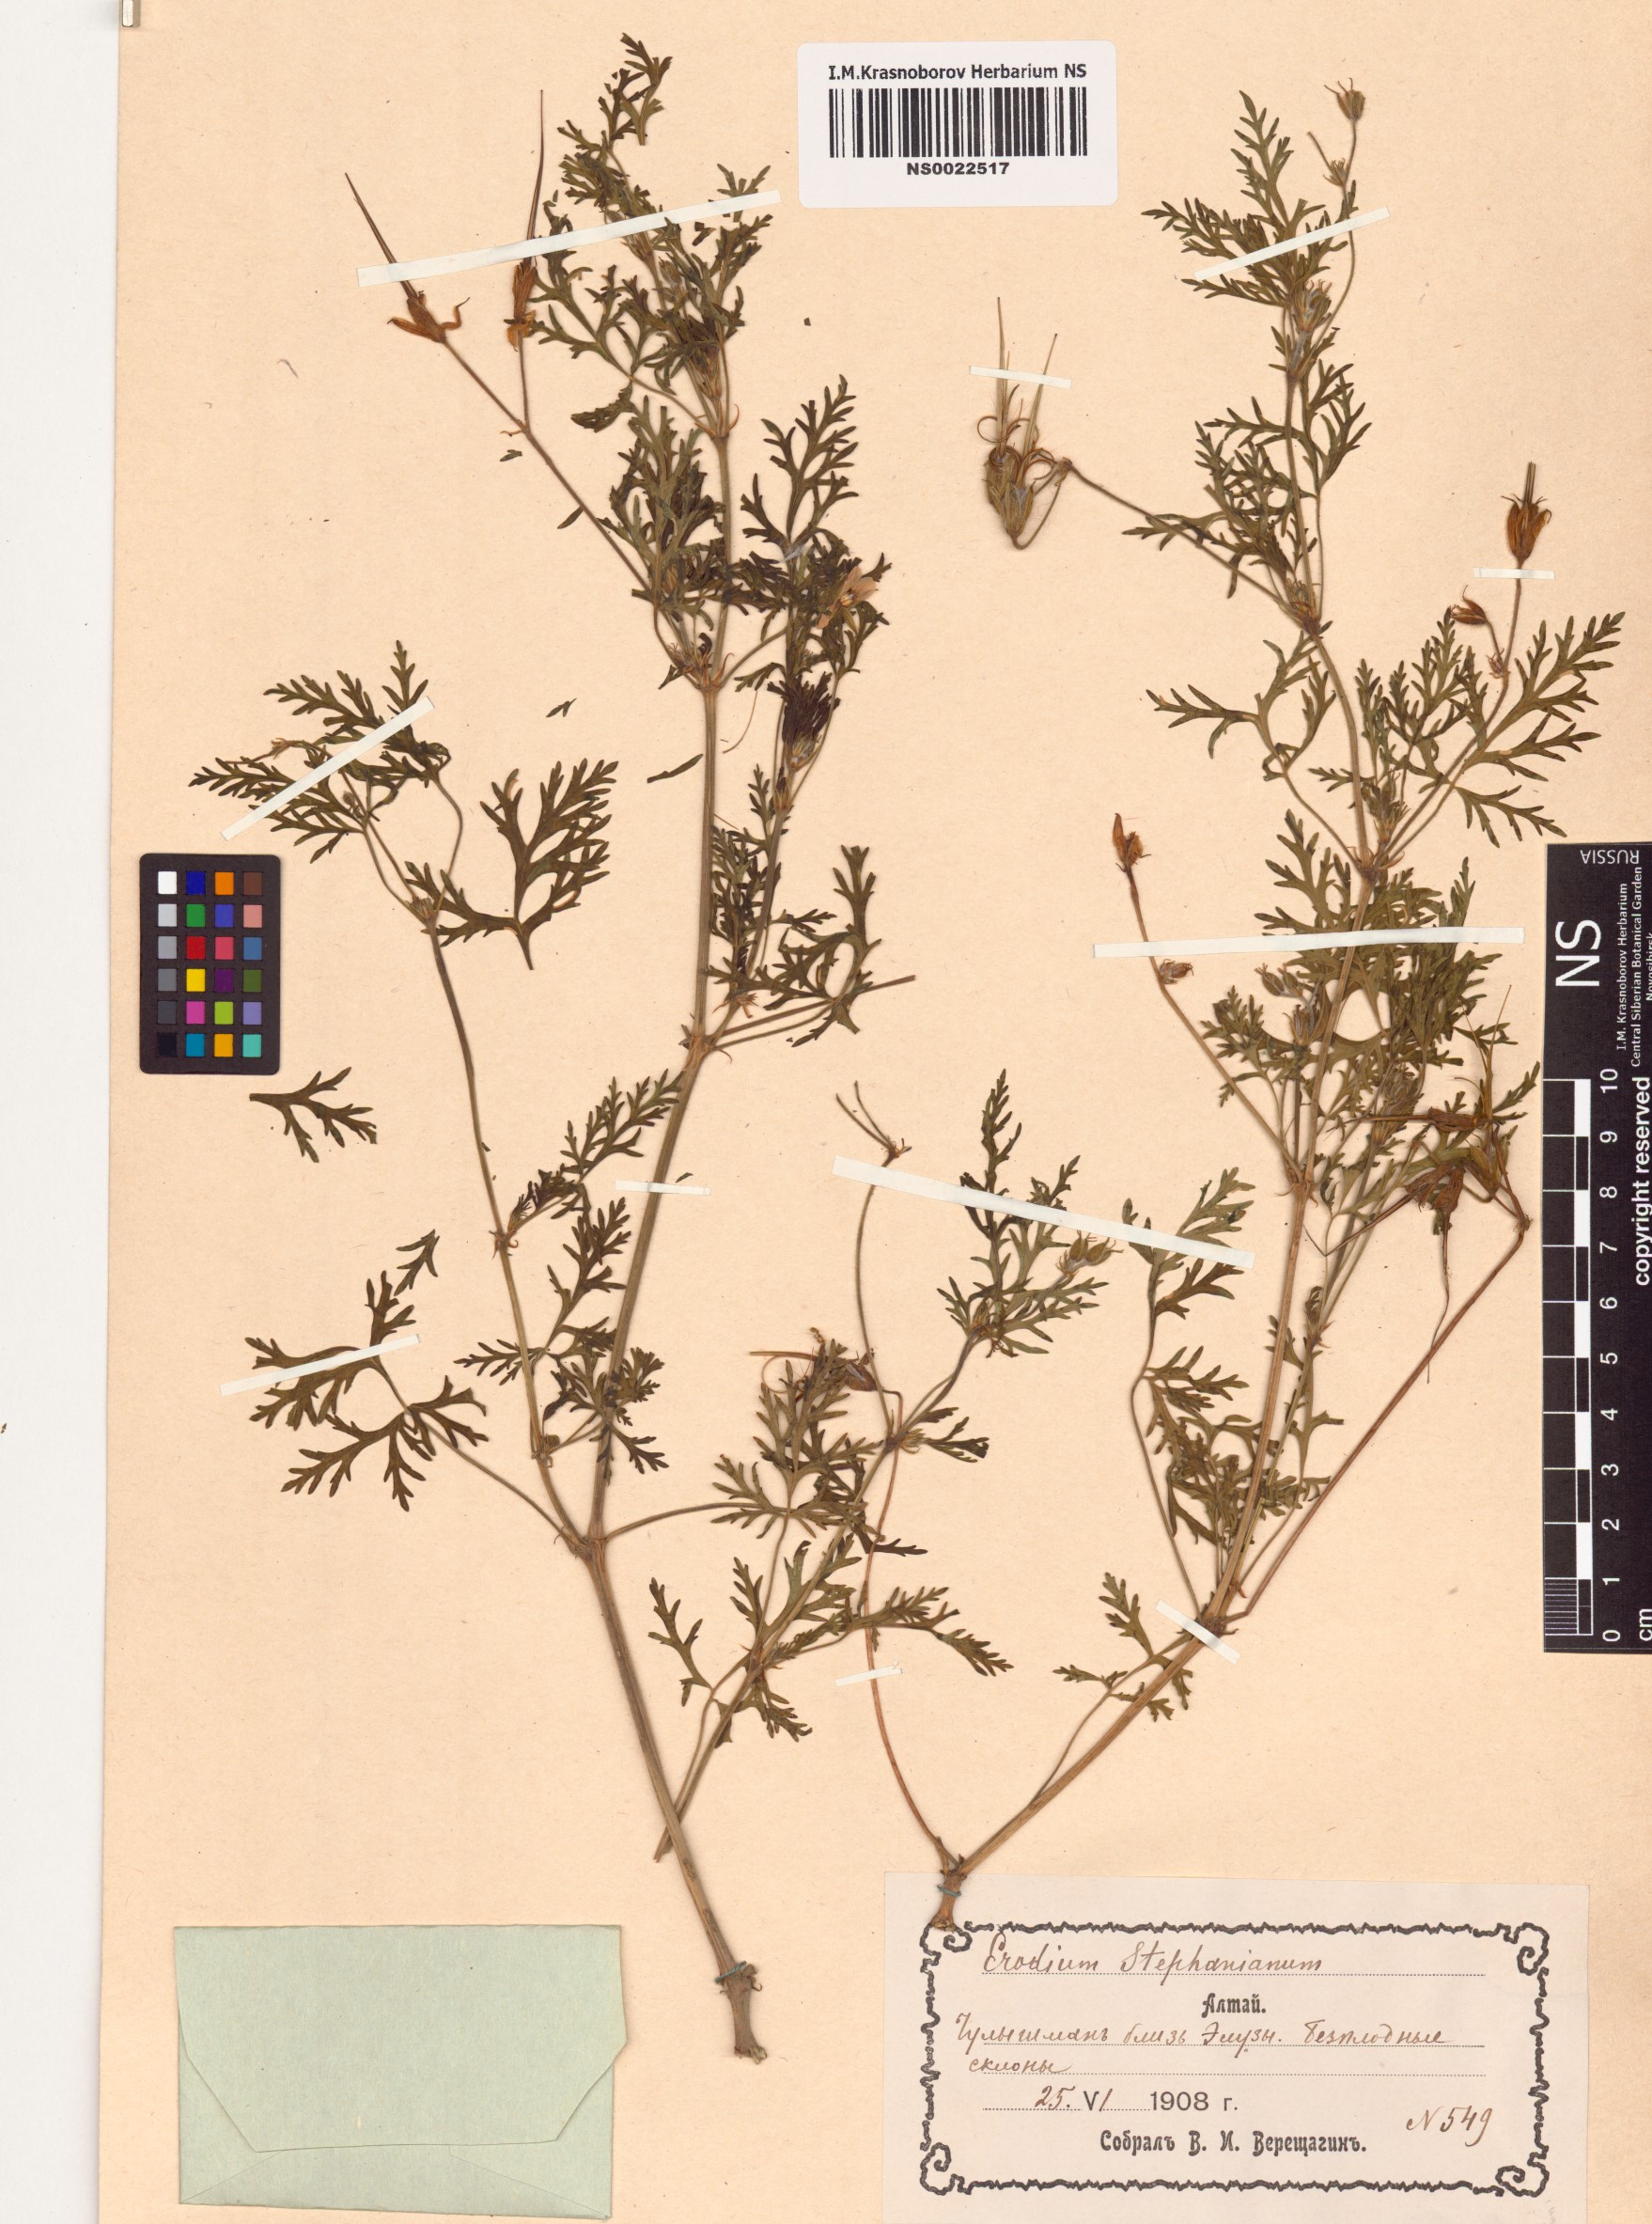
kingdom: Plantae
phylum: Tracheophyta
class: Magnoliopsida
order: Geraniales
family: Geraniaceae
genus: Erodium
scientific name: Erodium stephanianum
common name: Stephen's stork's bill
